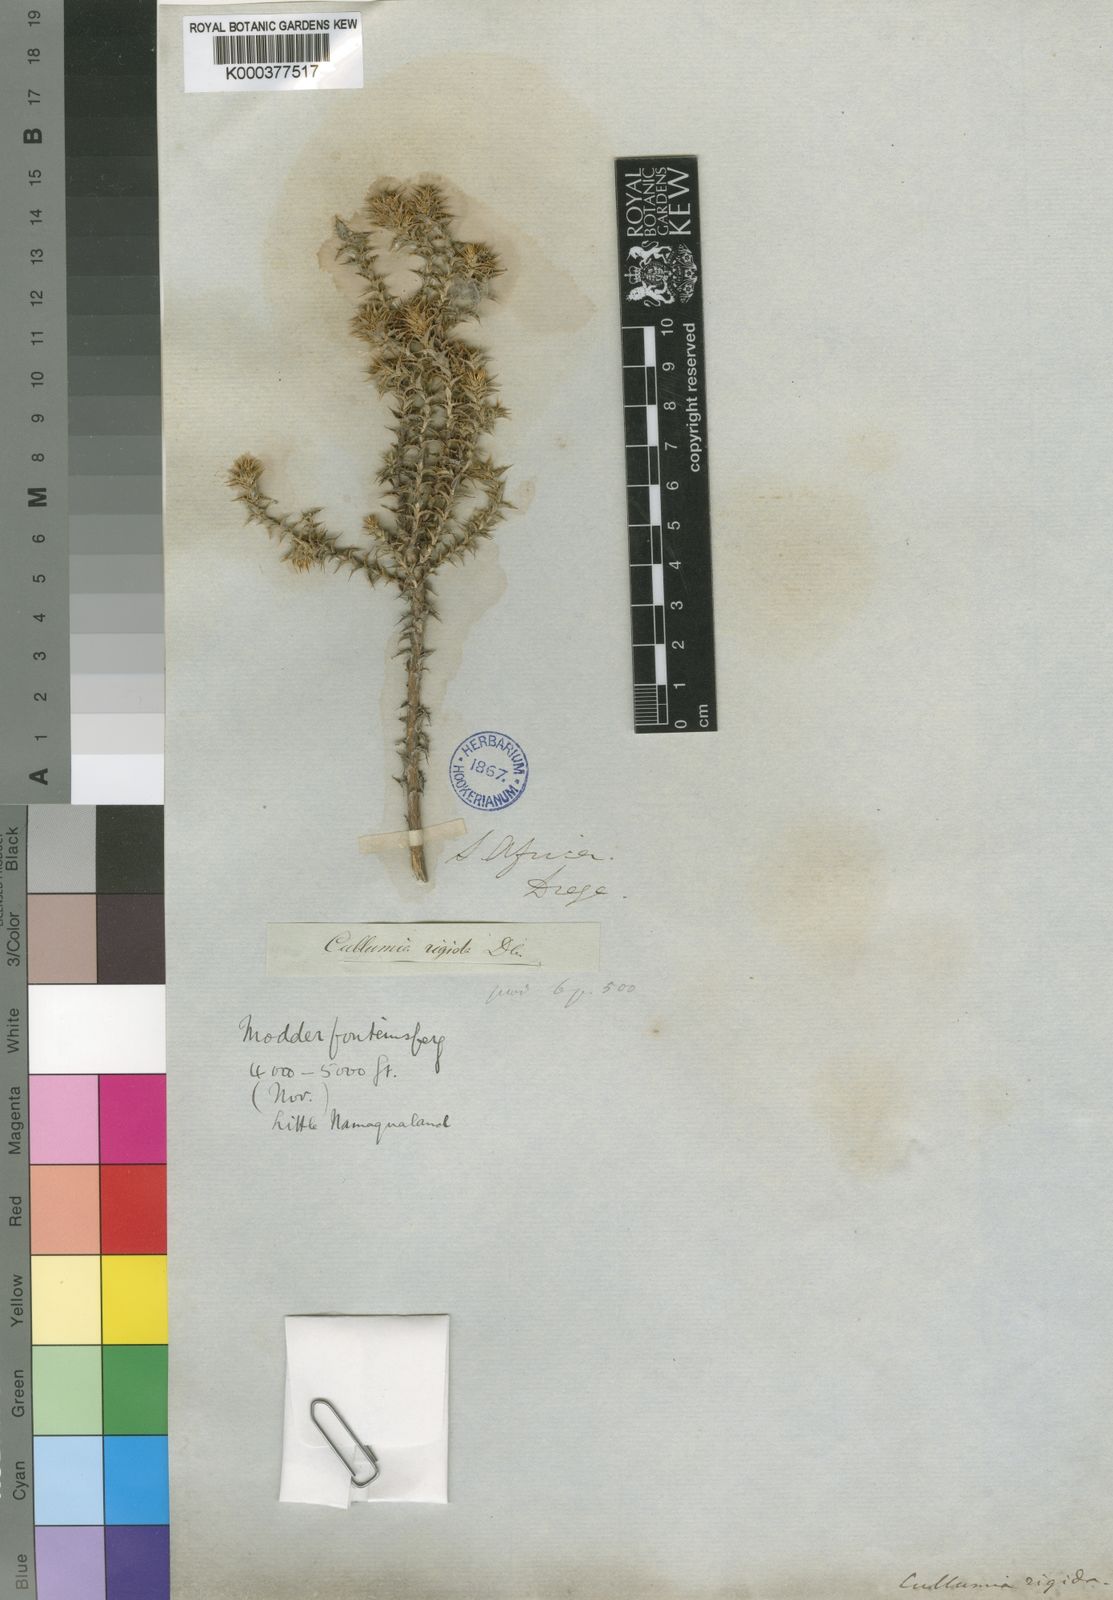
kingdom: Plantae
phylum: Tracheophyta
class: Magnoliopsida
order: Asterales
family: Asteraceae
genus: Cullumia
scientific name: Cullumia rigida
